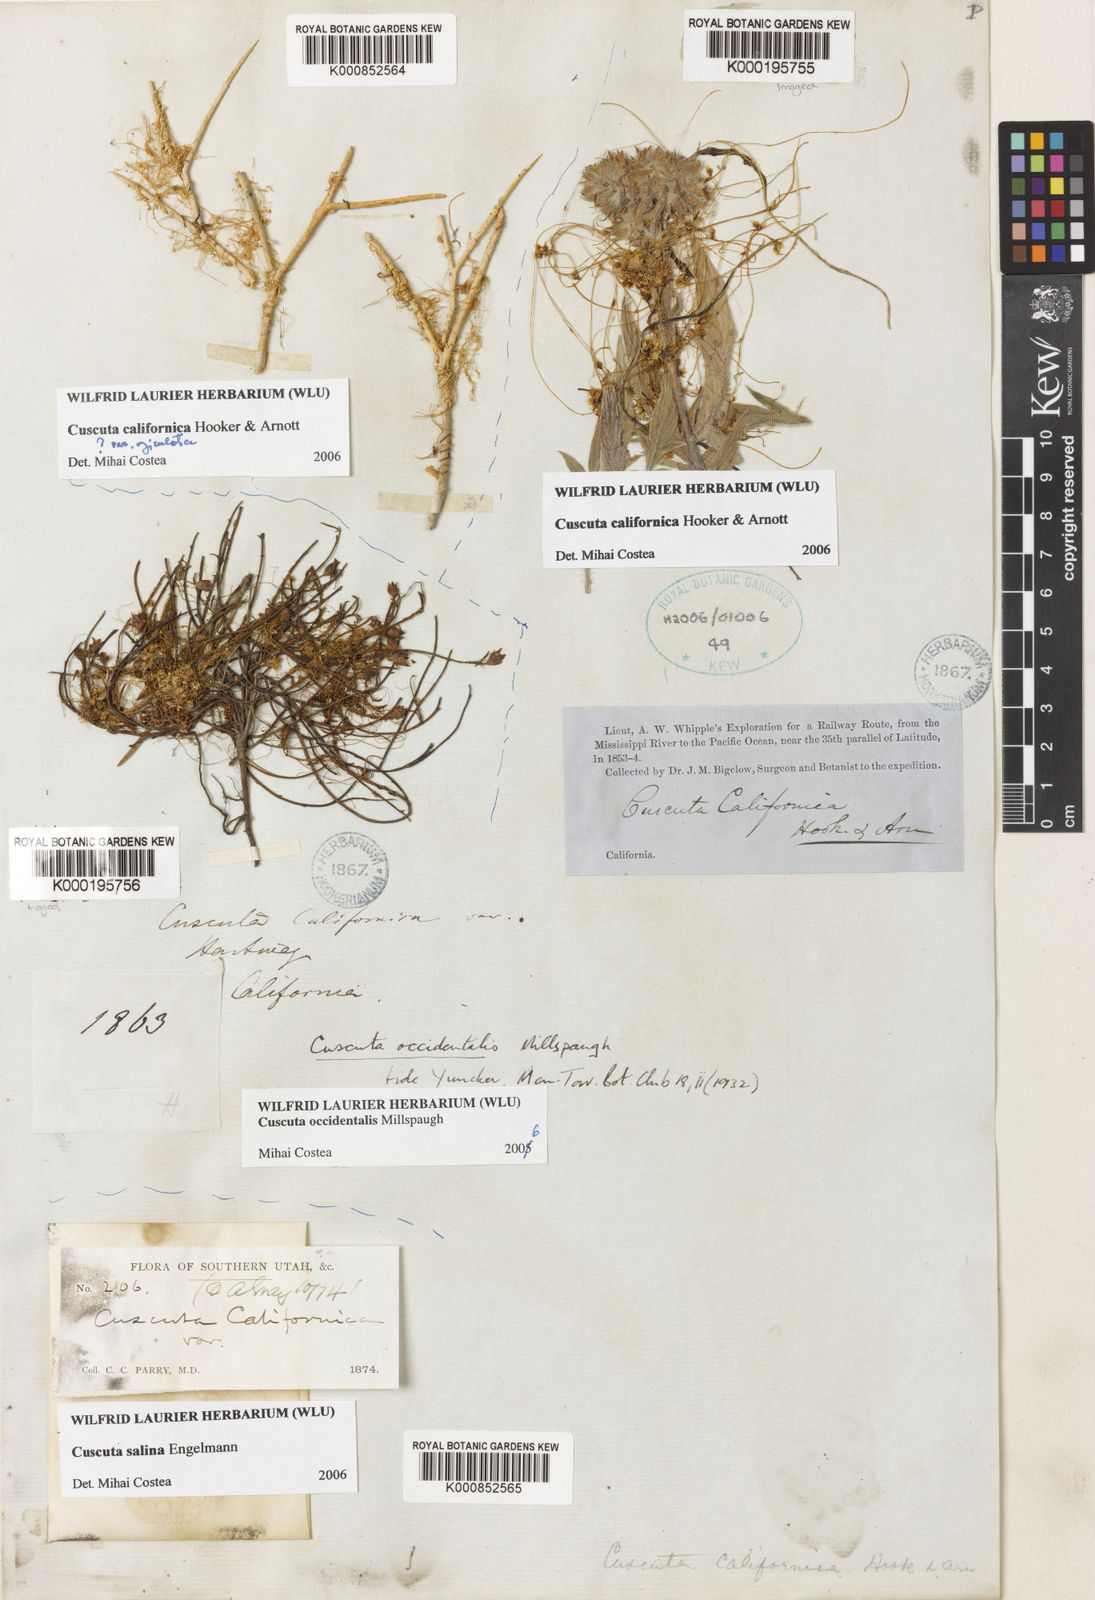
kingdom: Plantae
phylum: Tracheophyta
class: Magnoliopsida
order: Solanales
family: Convolvulaceae
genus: Cuscuta
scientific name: Cuscuta occidentalis
